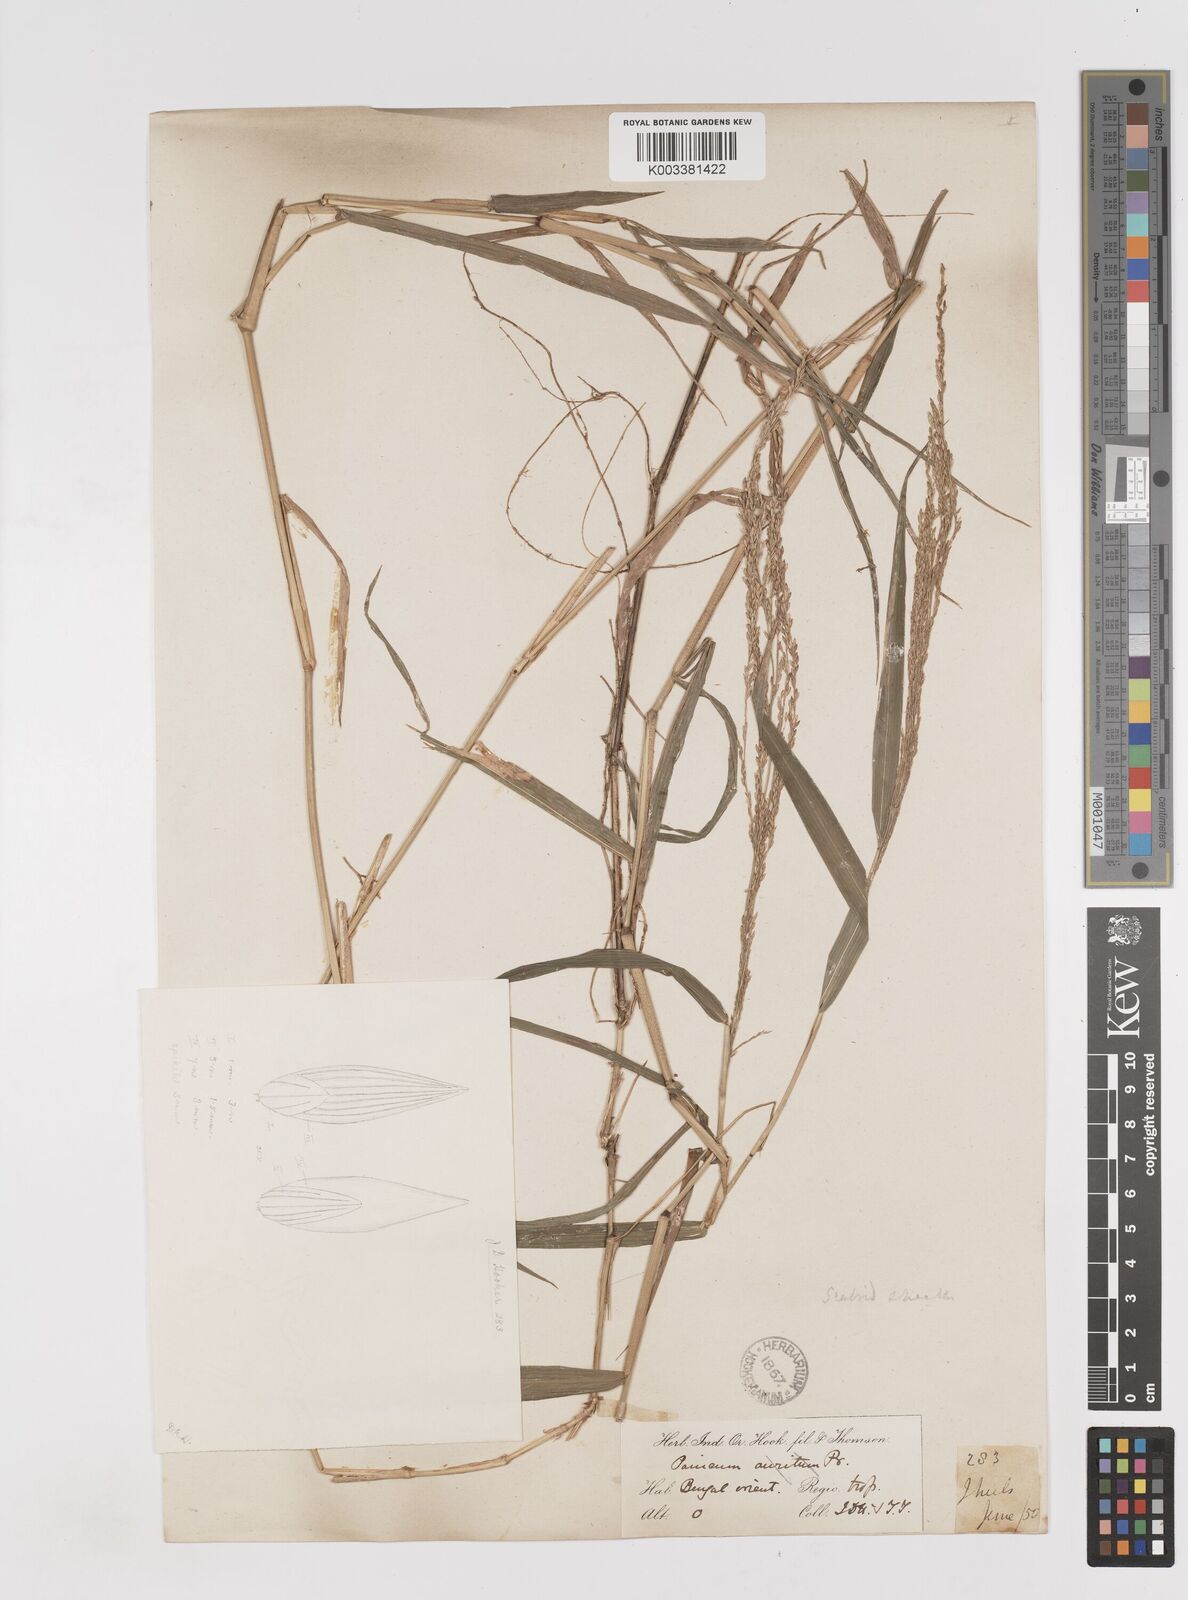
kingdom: Plantae
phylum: Tracheophyta
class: Liliopsida
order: Poales
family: Poaceae
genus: Ottochloa
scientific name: Ottochloa nodosa
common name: Slender-panic grass
